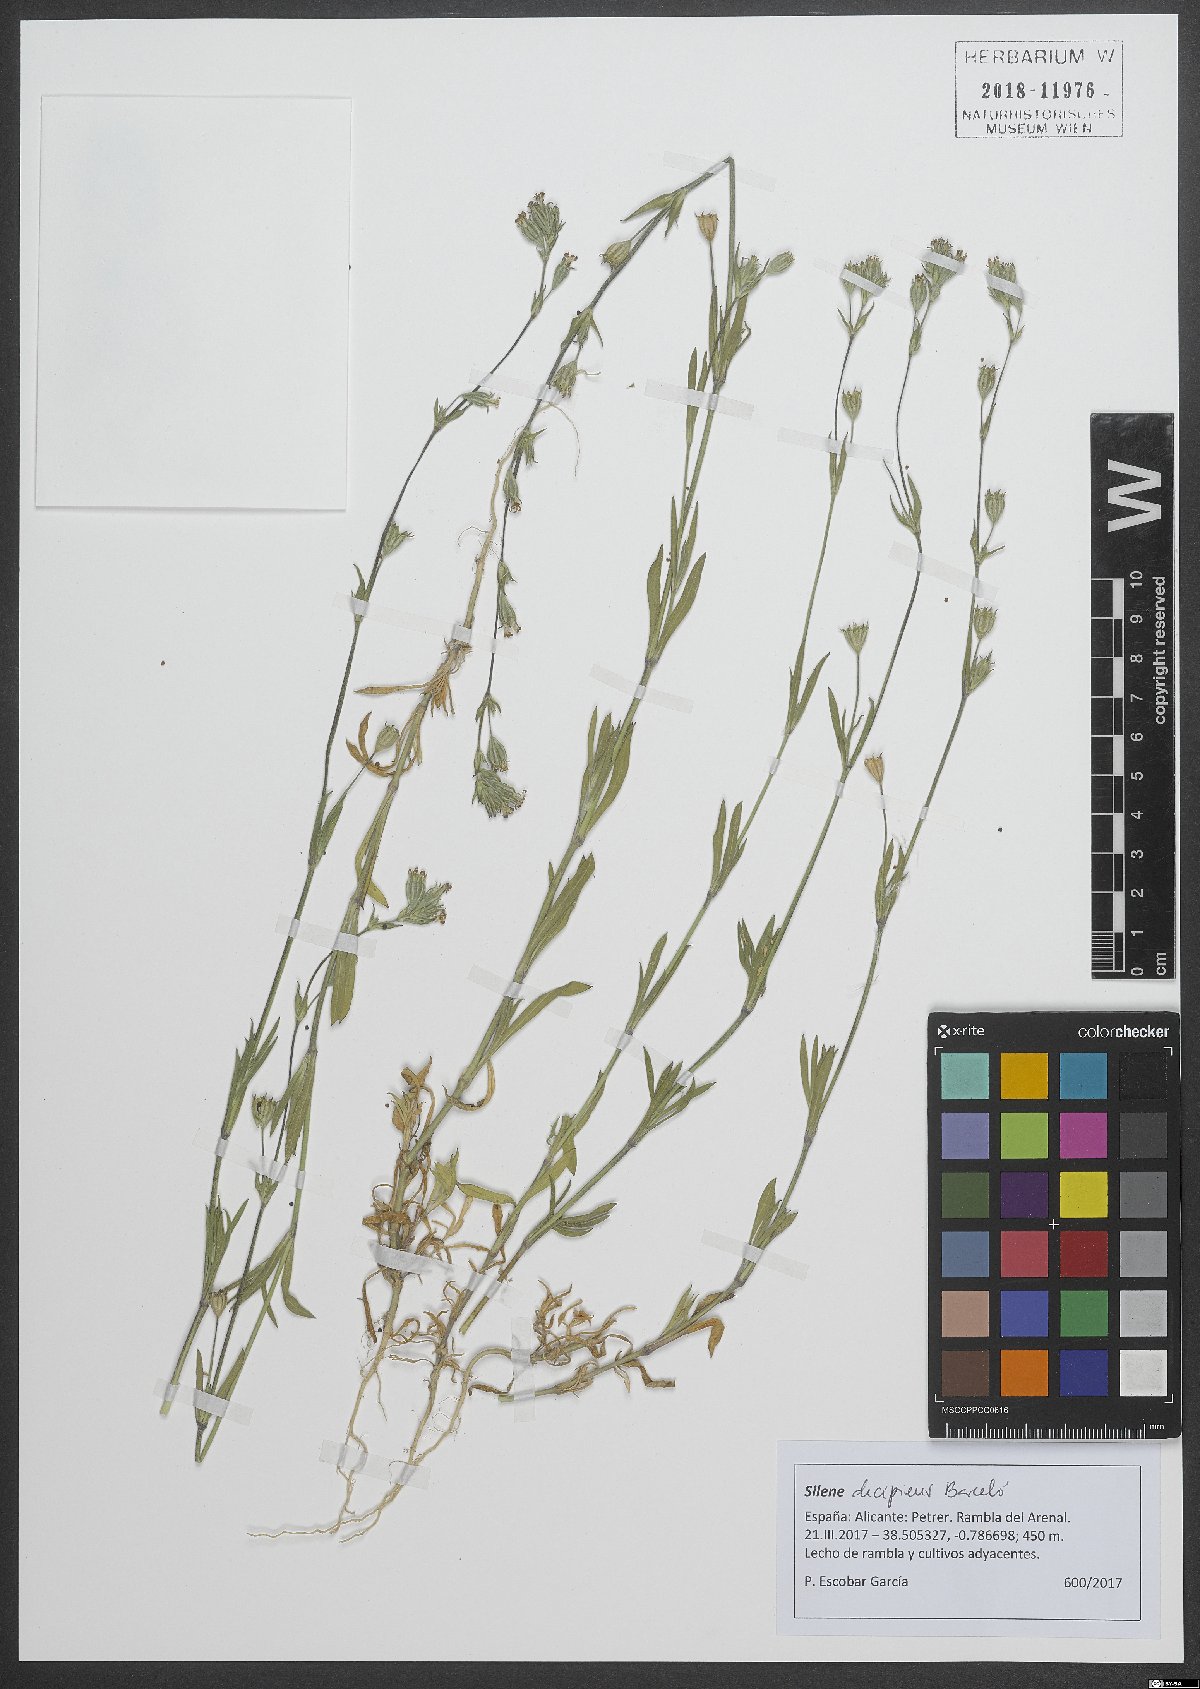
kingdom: Plantae
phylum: Tracheophyta
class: Magnoliopsida
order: Caryophyllales
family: Caryophyllaceae
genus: Silene
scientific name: Silene apetala
